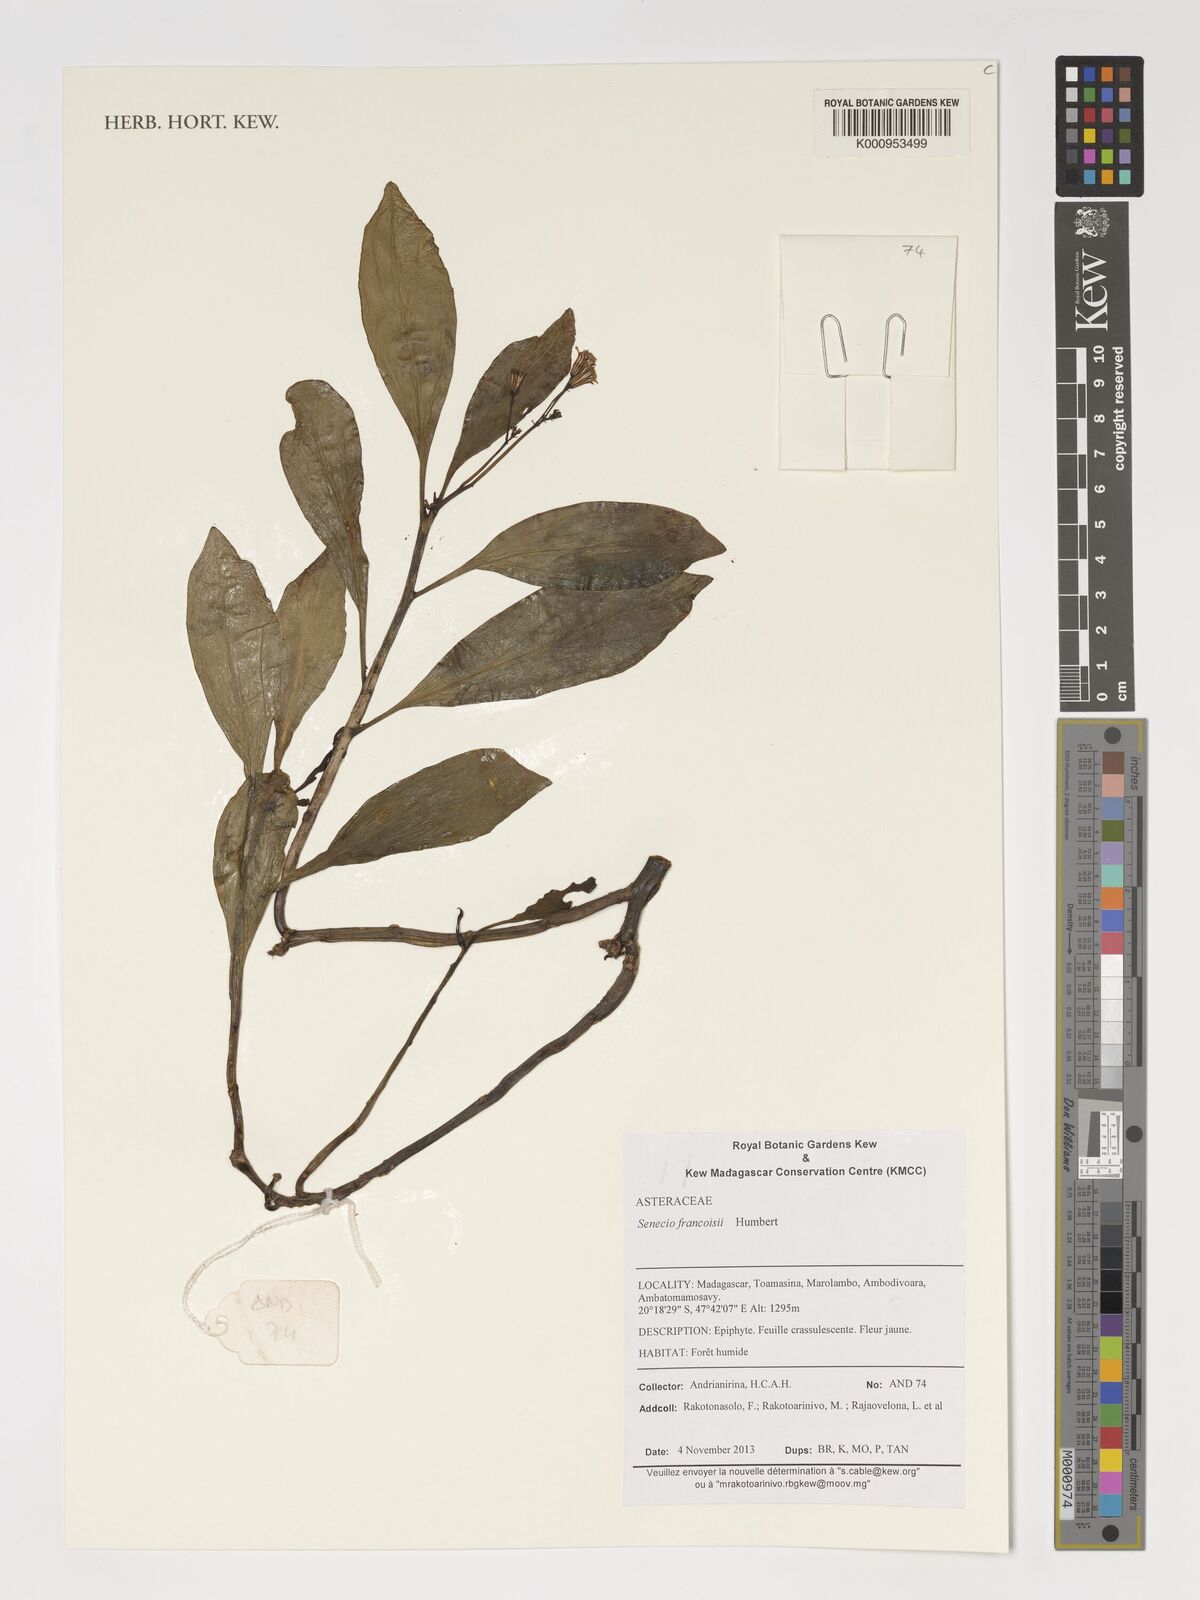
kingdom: Plantae
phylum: Tracheophyta
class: Magnoliopsida
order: Asterales
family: Asteraceae
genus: Senecio
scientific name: Senecio francoisii
